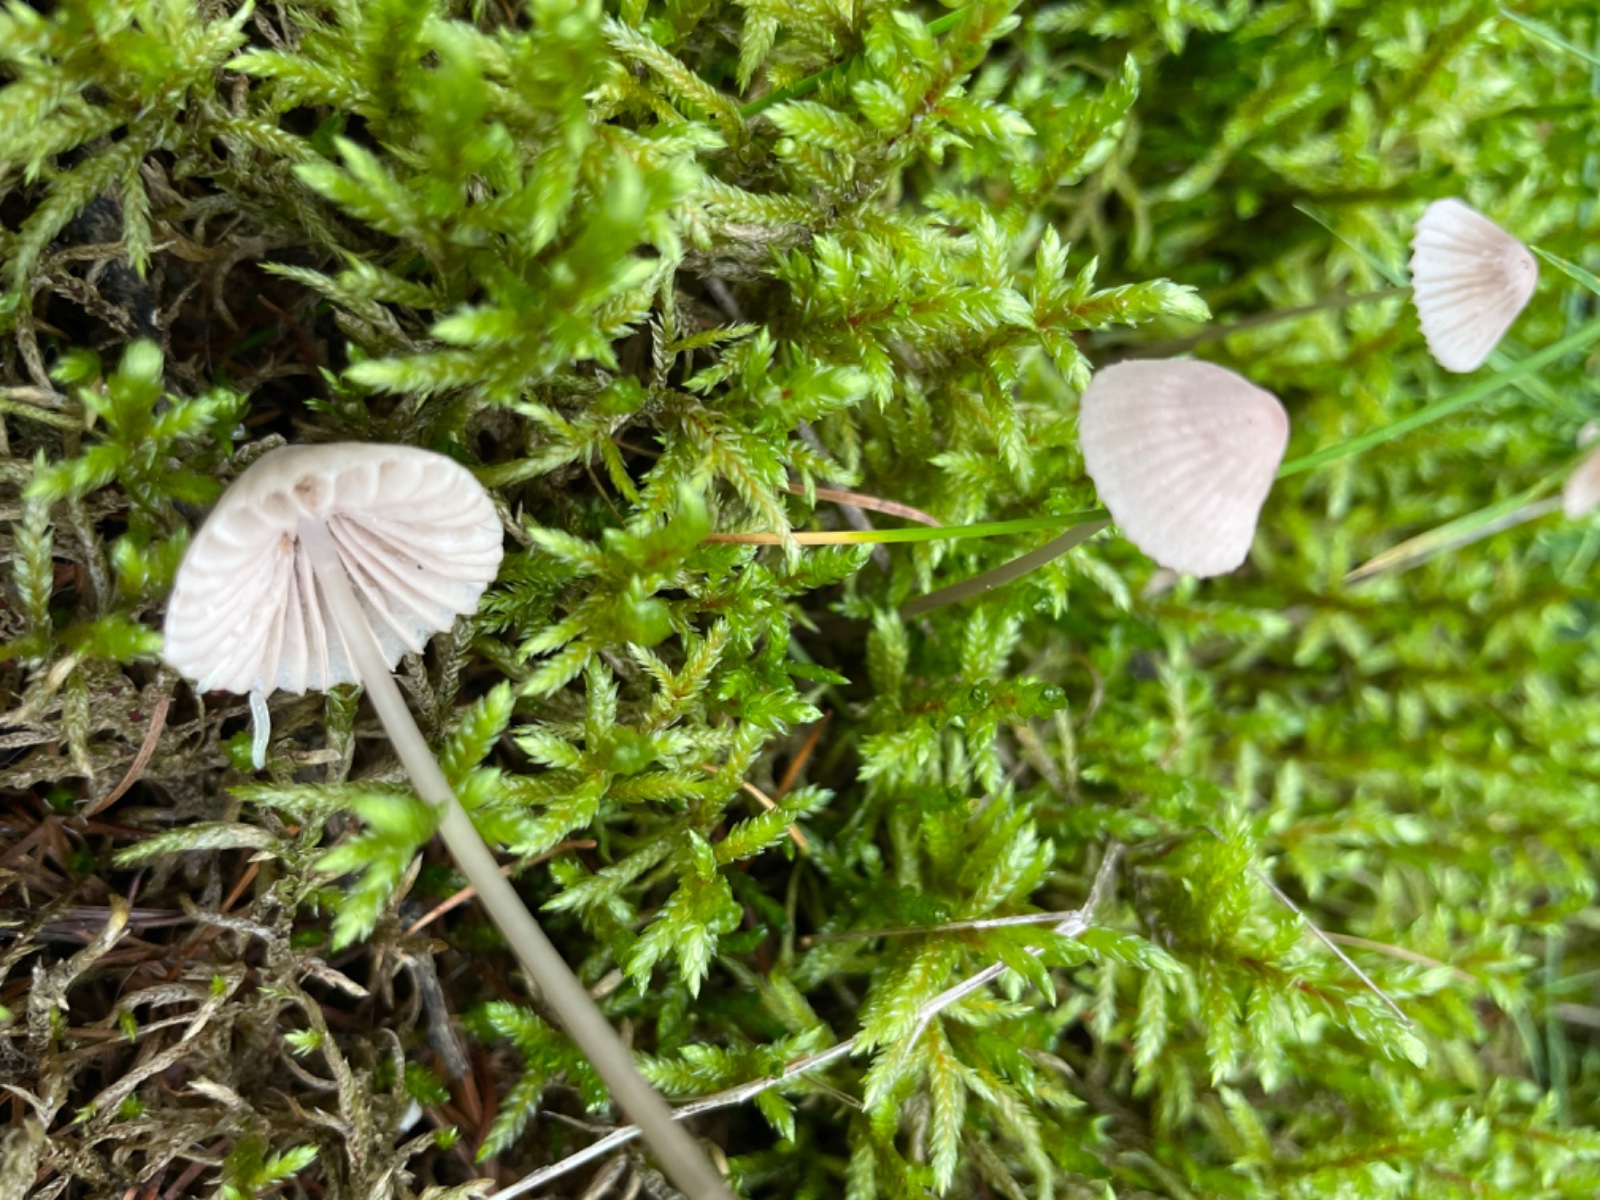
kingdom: Fungi
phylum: Basidiomycota
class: Agaricomycetes
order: Agaricales
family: Mycenaceae
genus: Mycena
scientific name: Mycena capillaripes
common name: nåle-huesvamp
